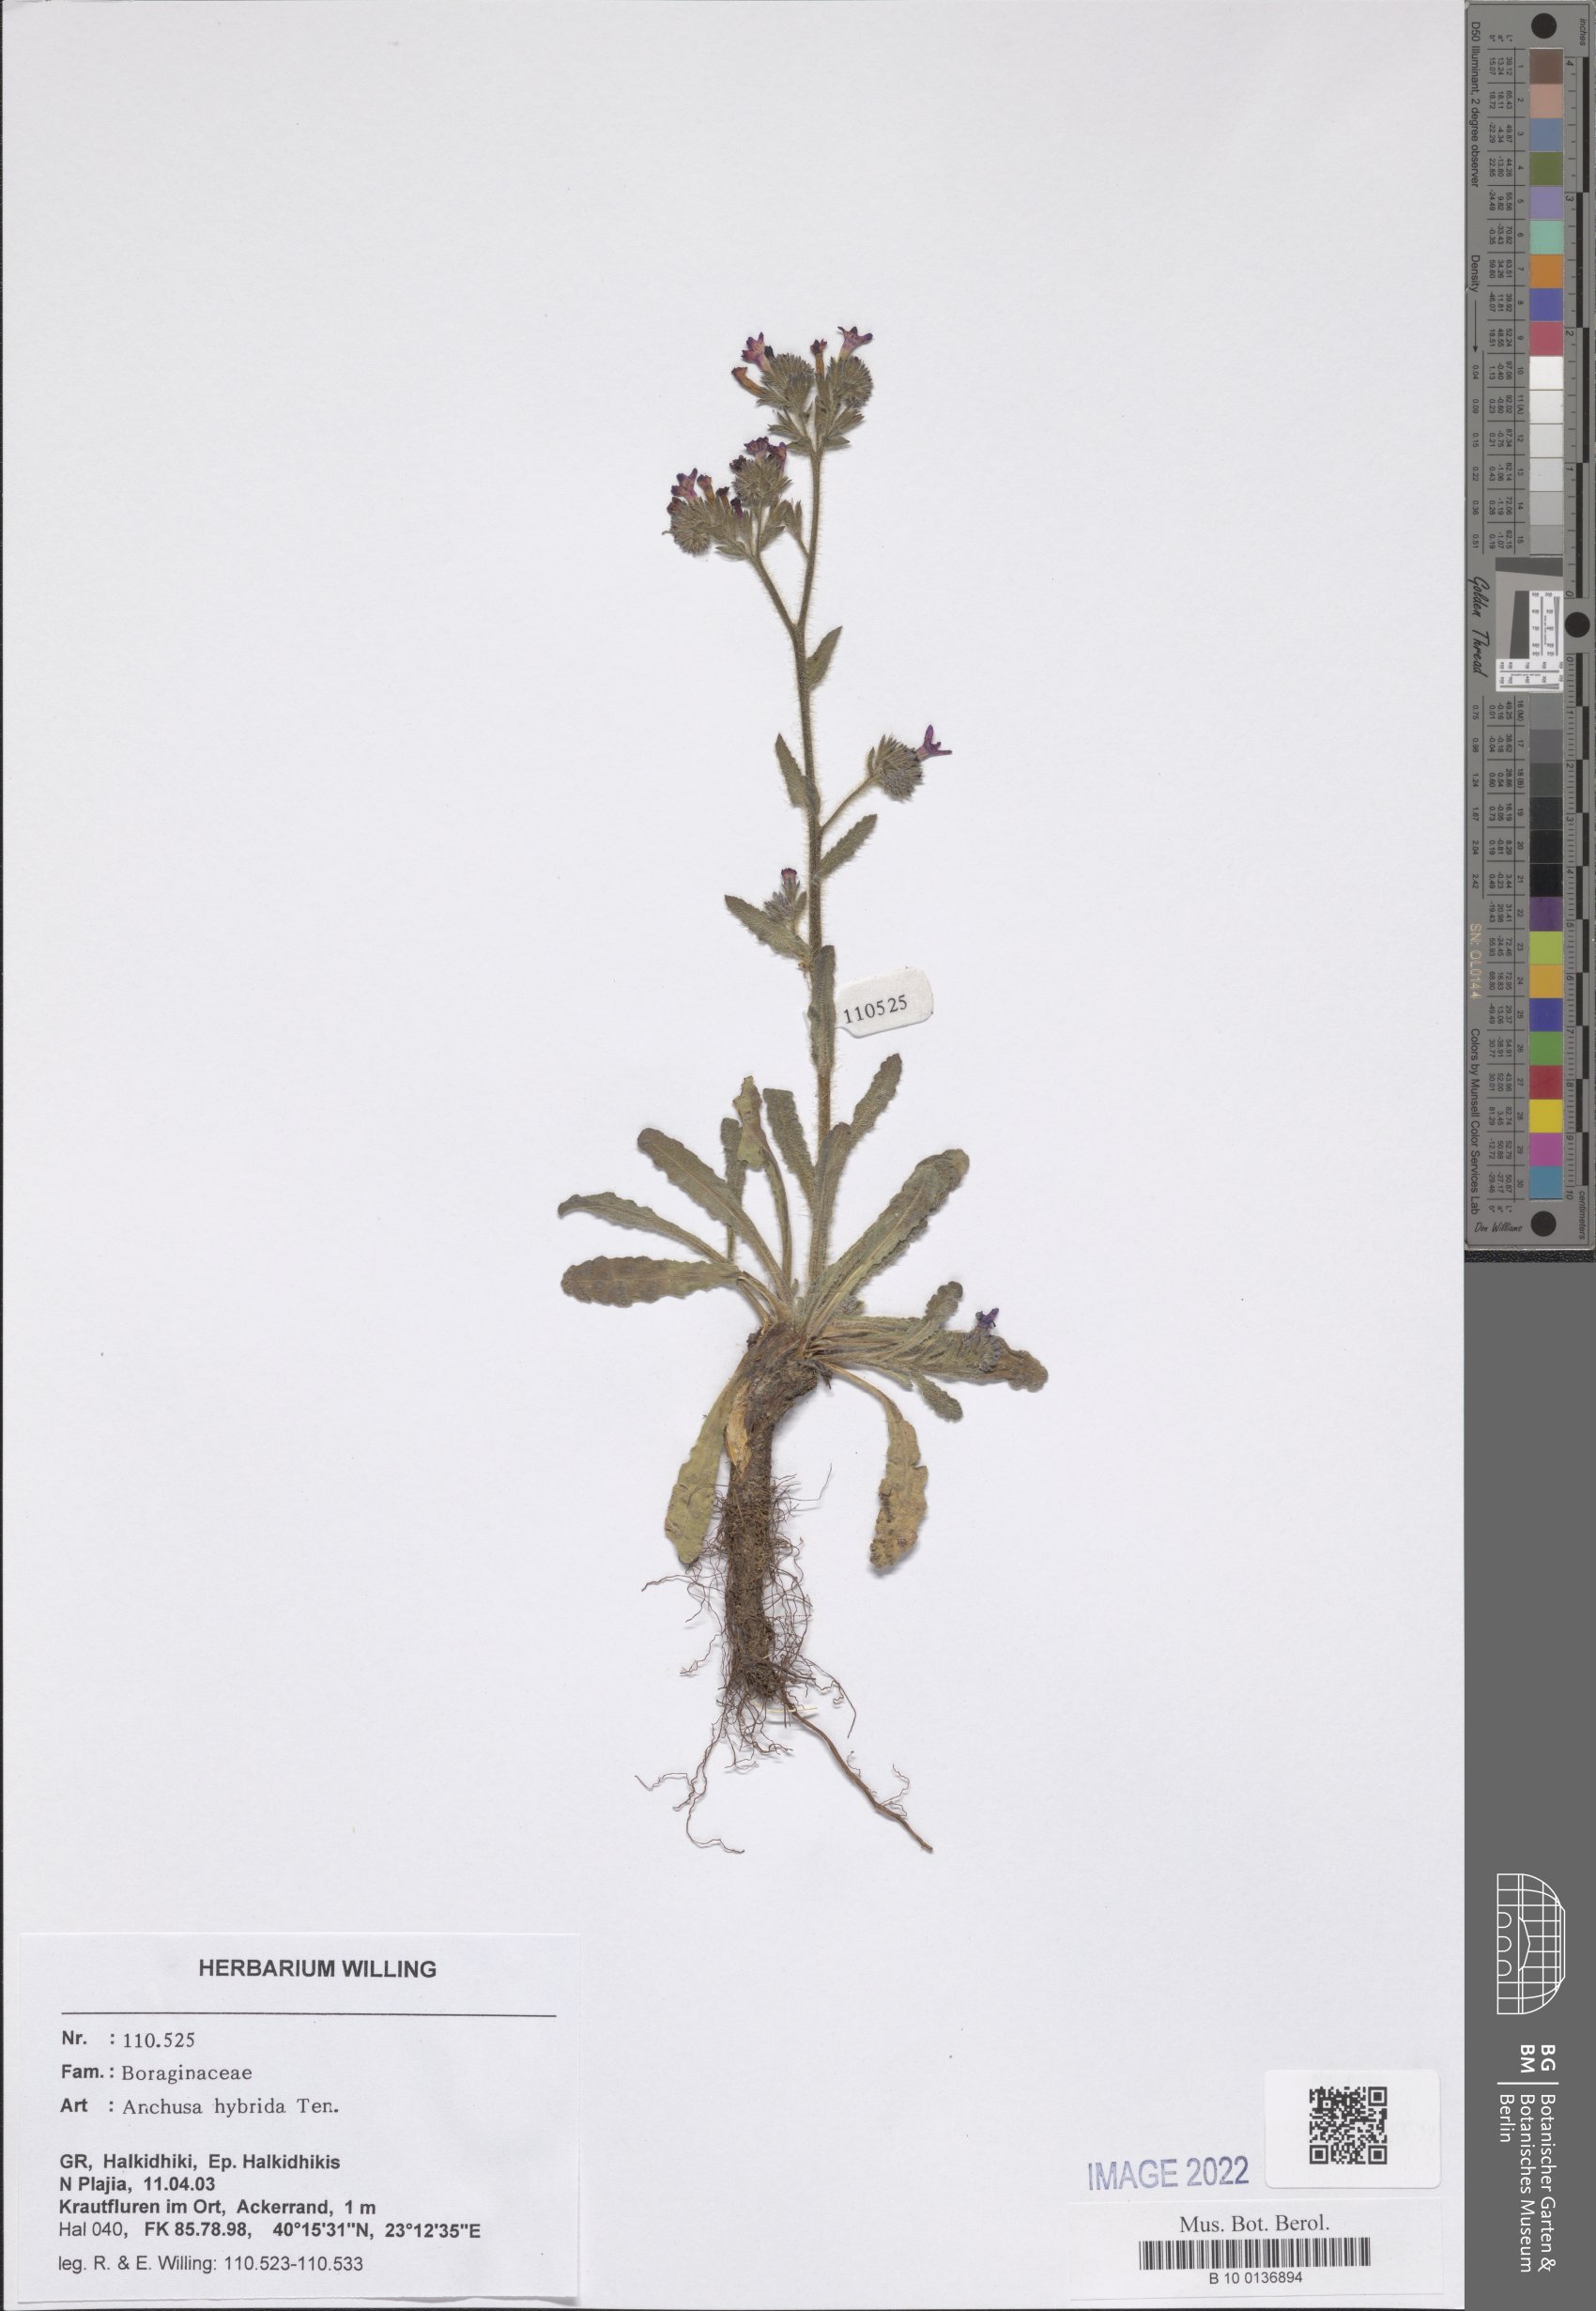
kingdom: Plantae
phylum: Tracheophyta
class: Magnoliopsida
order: Boraginales
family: Boraginaceae
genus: Anchusa
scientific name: Anchusa hybrida
